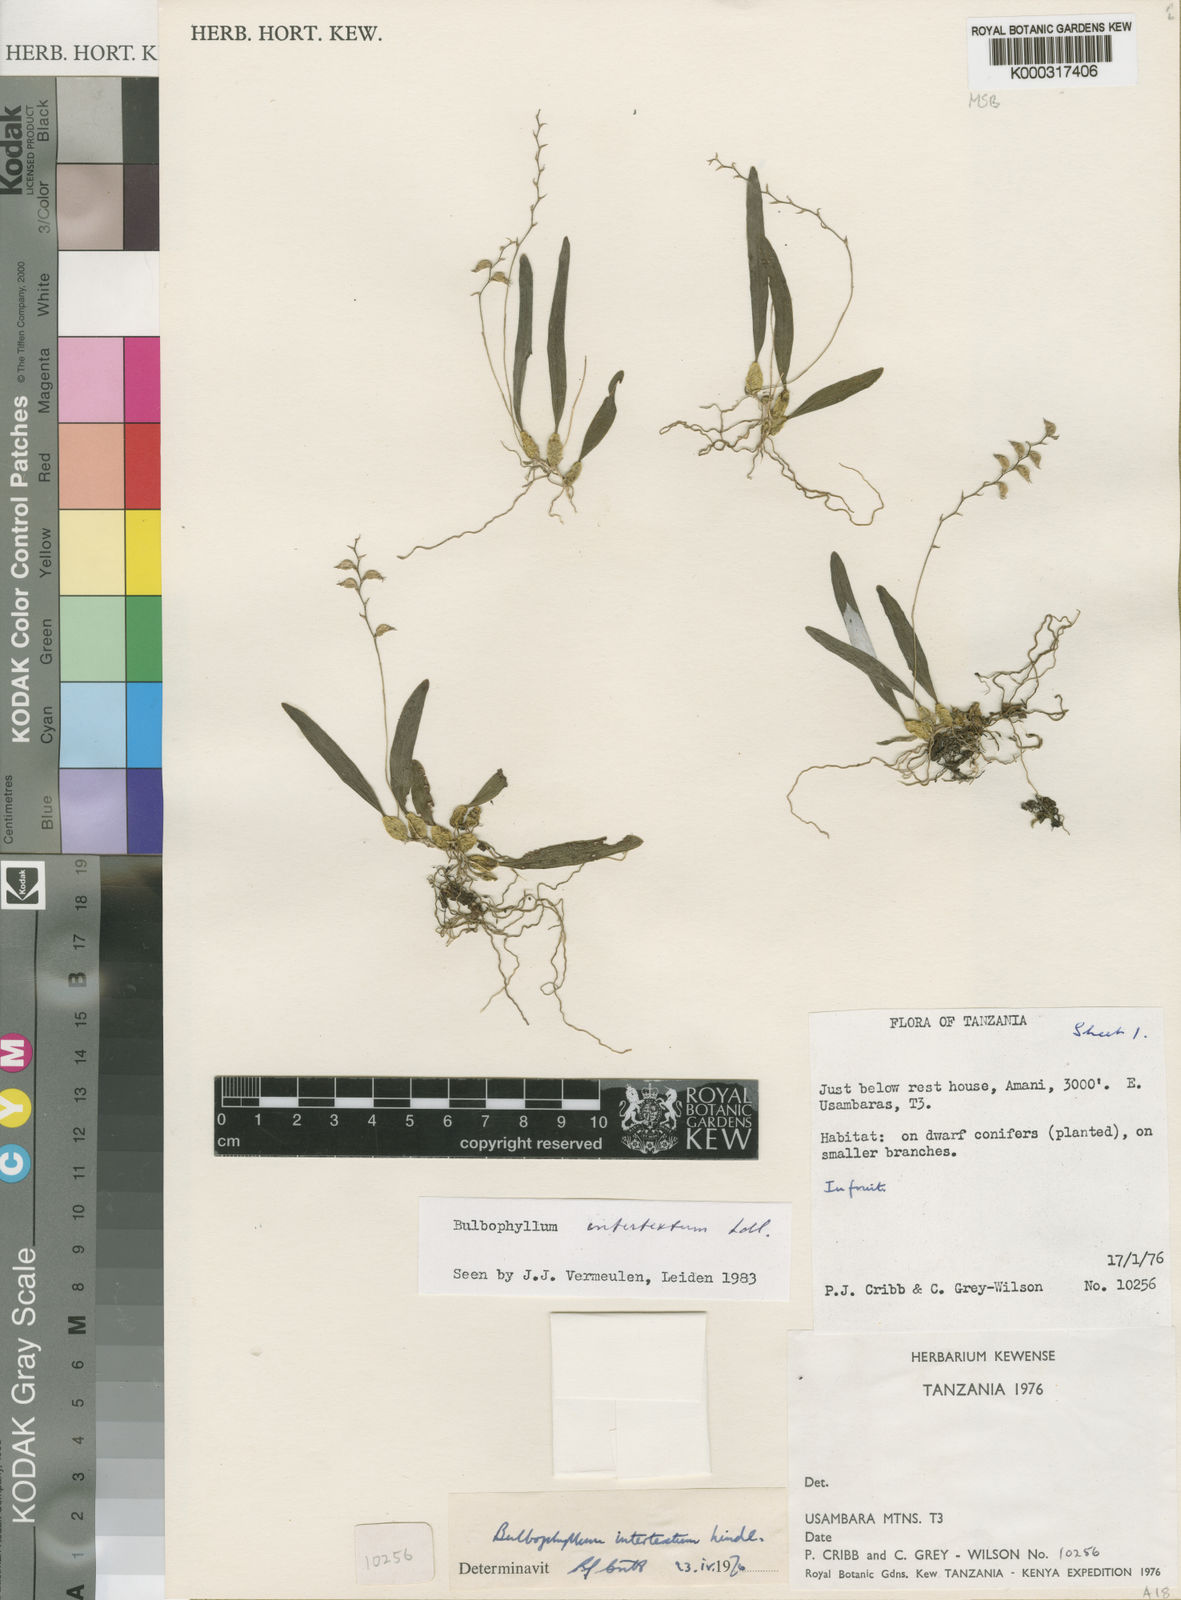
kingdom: Plantae
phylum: Tracheophyta
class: Liliopsida
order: Asparagales
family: Orchidaceae
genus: Bulbophyllum
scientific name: Bulbophyllum intertextum
